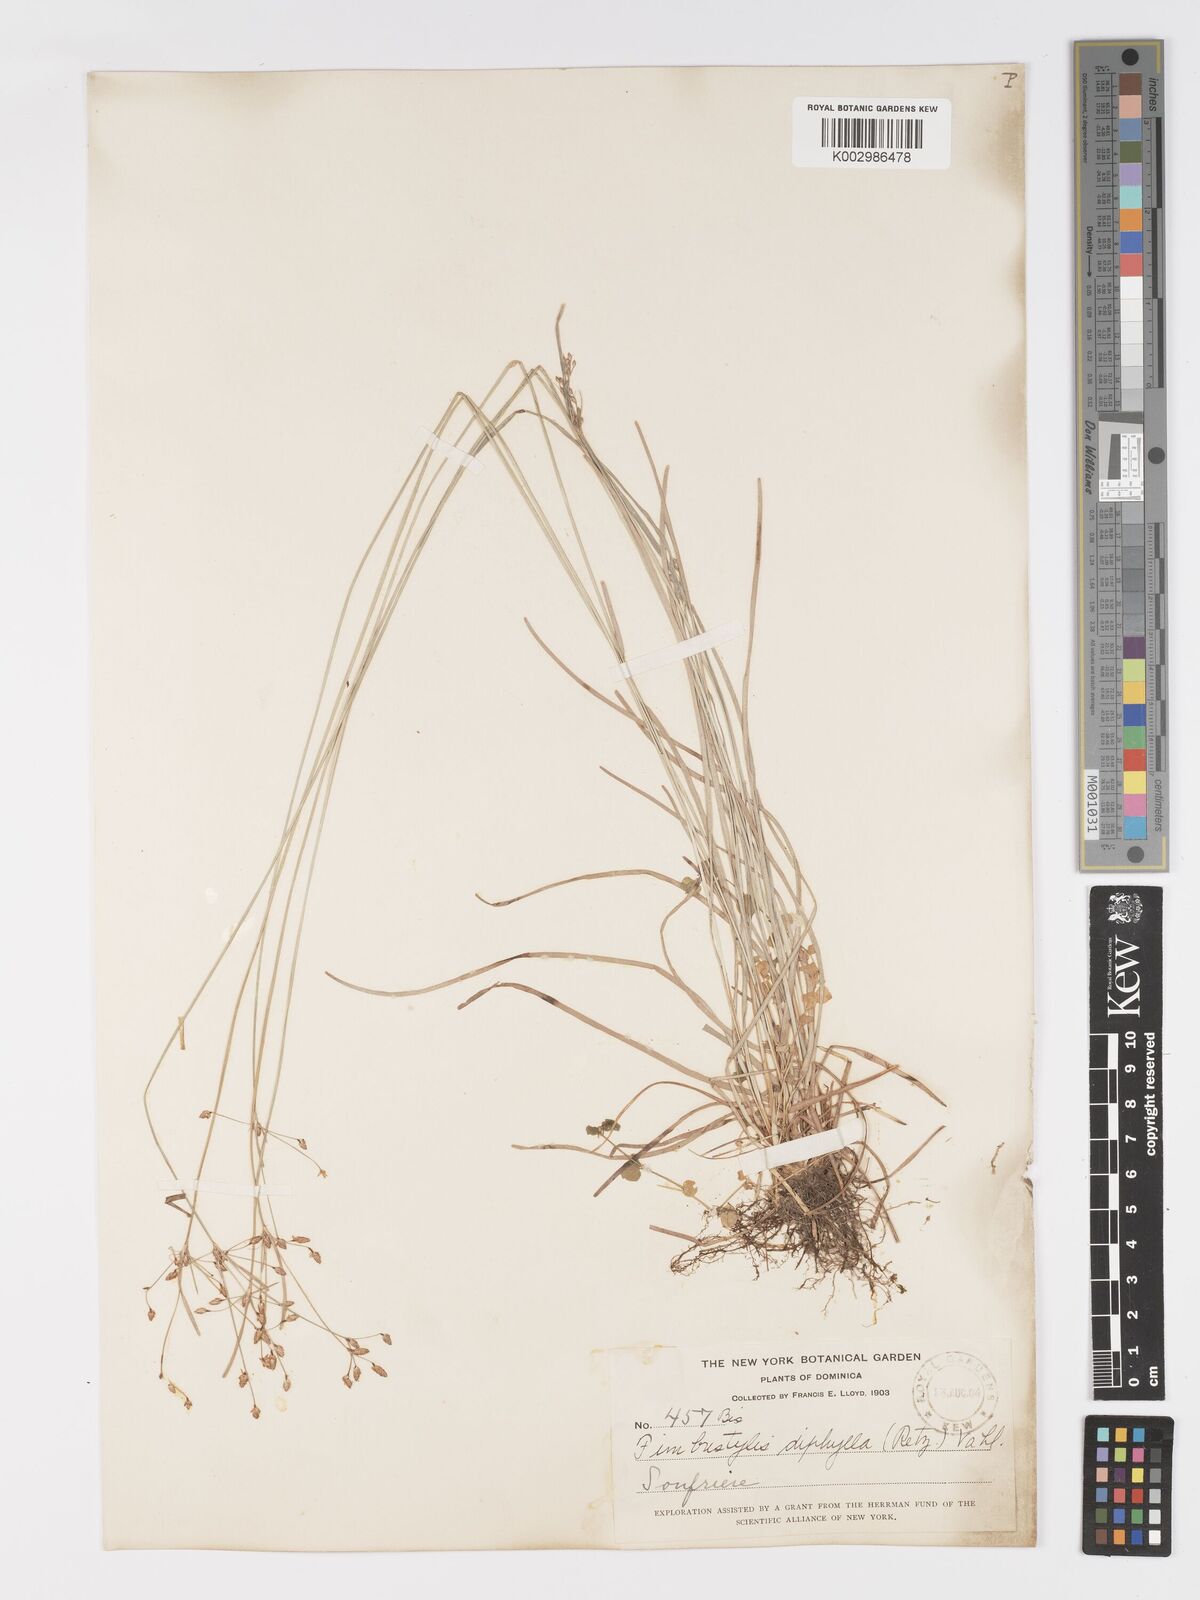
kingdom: Plantae
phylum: Tracheophyta
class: Liliopsida
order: Poales
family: Cyperaceae
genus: Fimbristylis
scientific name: Fimbristylis dichotoma
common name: Forked fimbry
